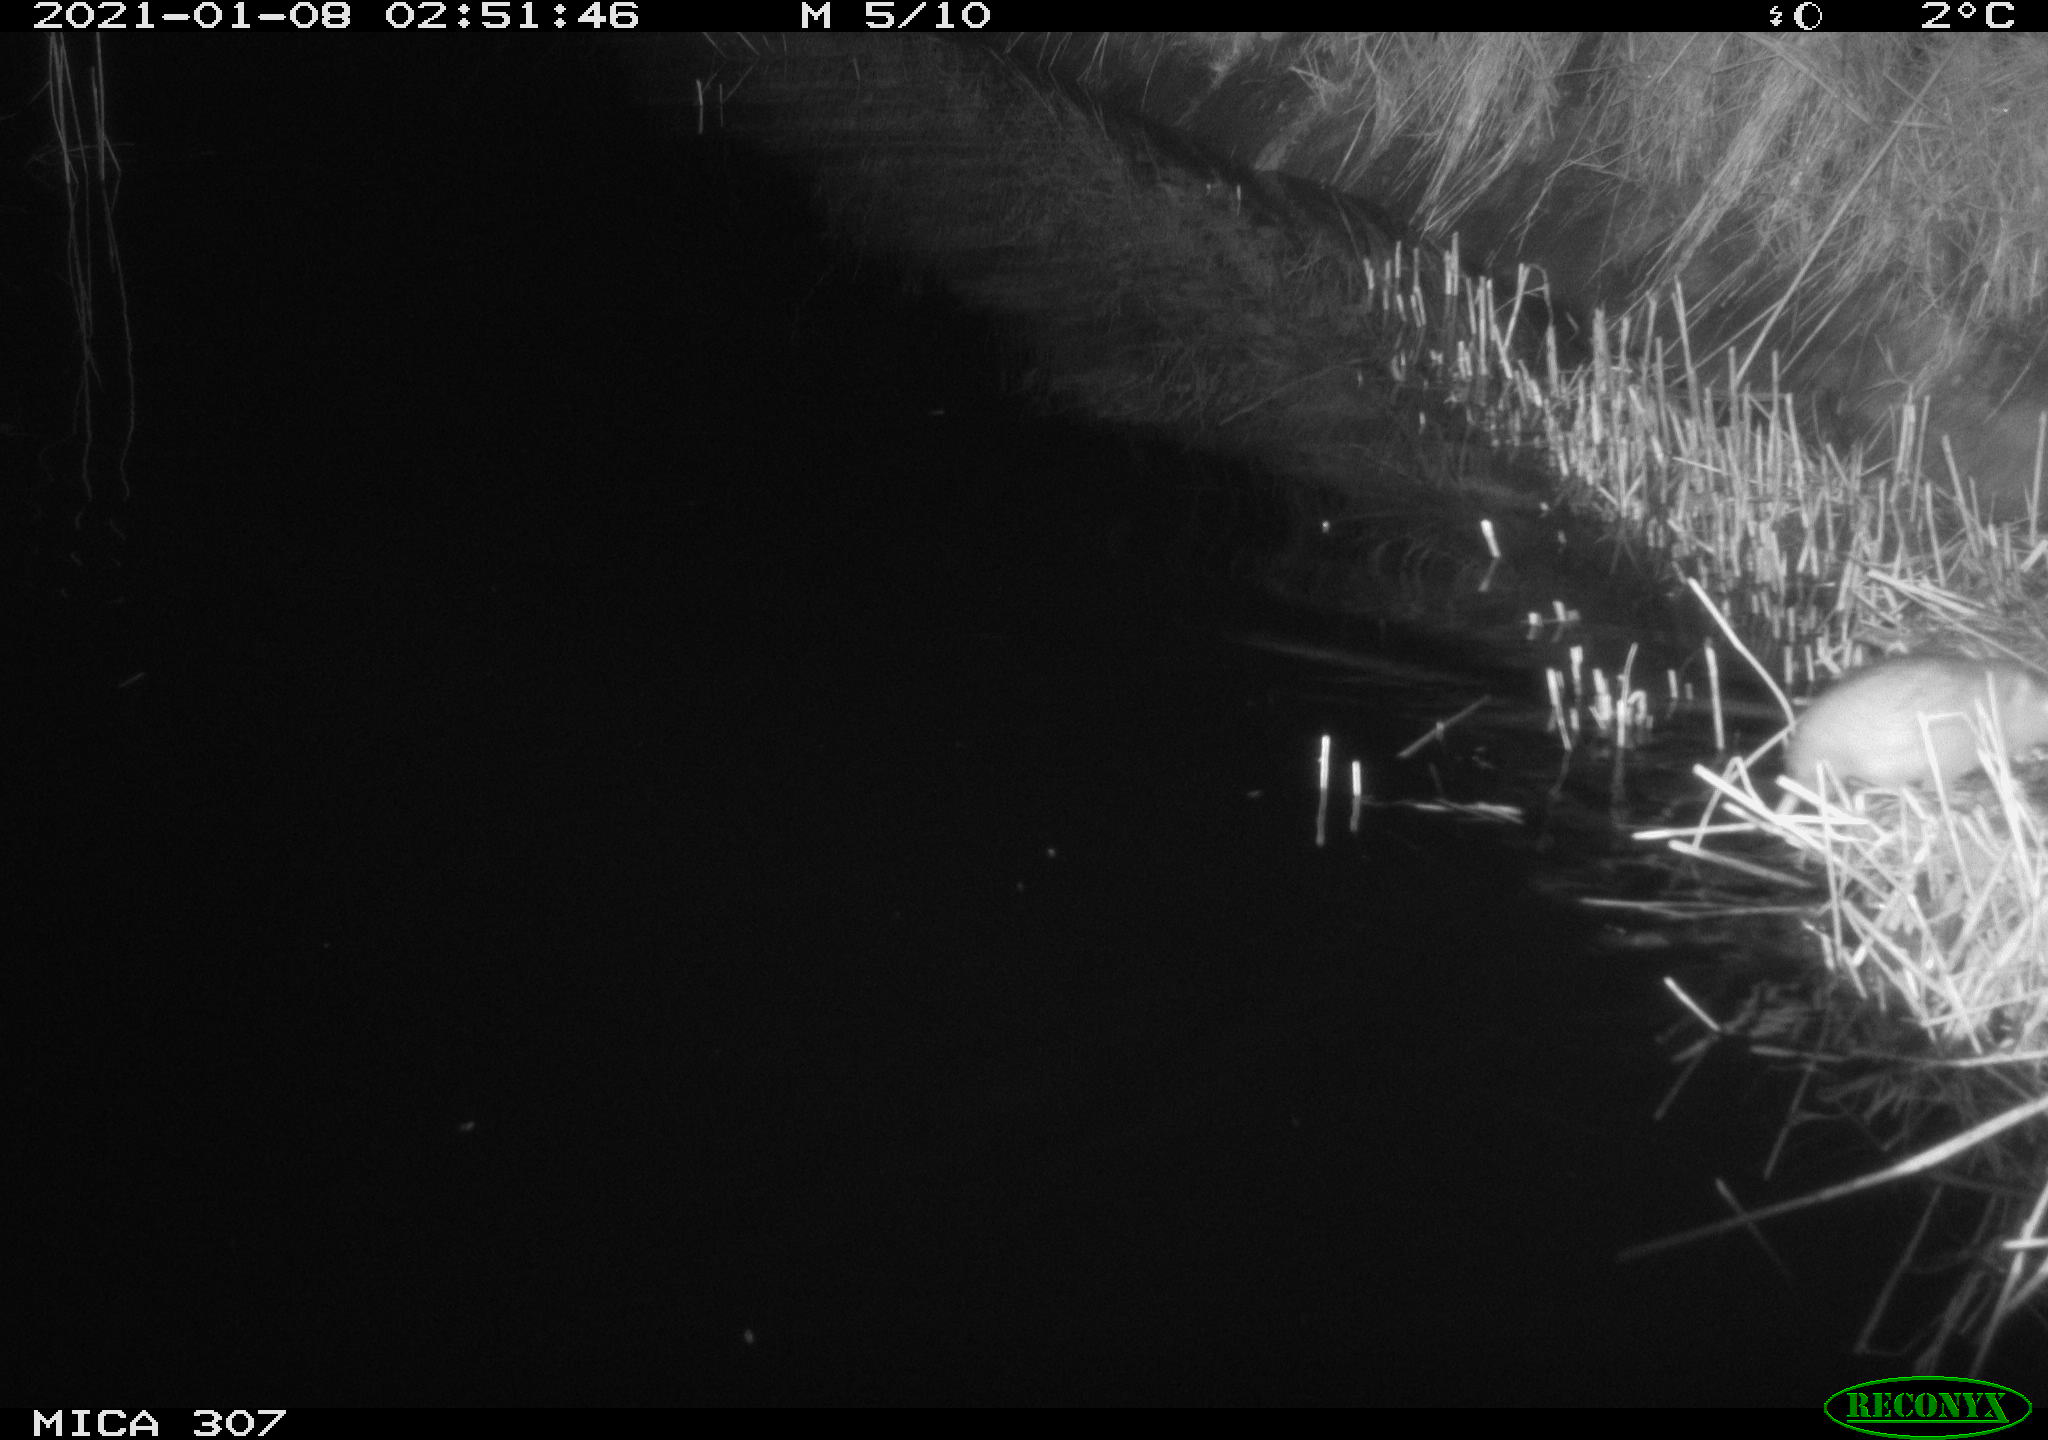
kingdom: Animalia
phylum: Chordata
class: Mammalia
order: Rodentia
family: Muridae
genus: Rattus
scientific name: Rattus norvegicus
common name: Brown rat
